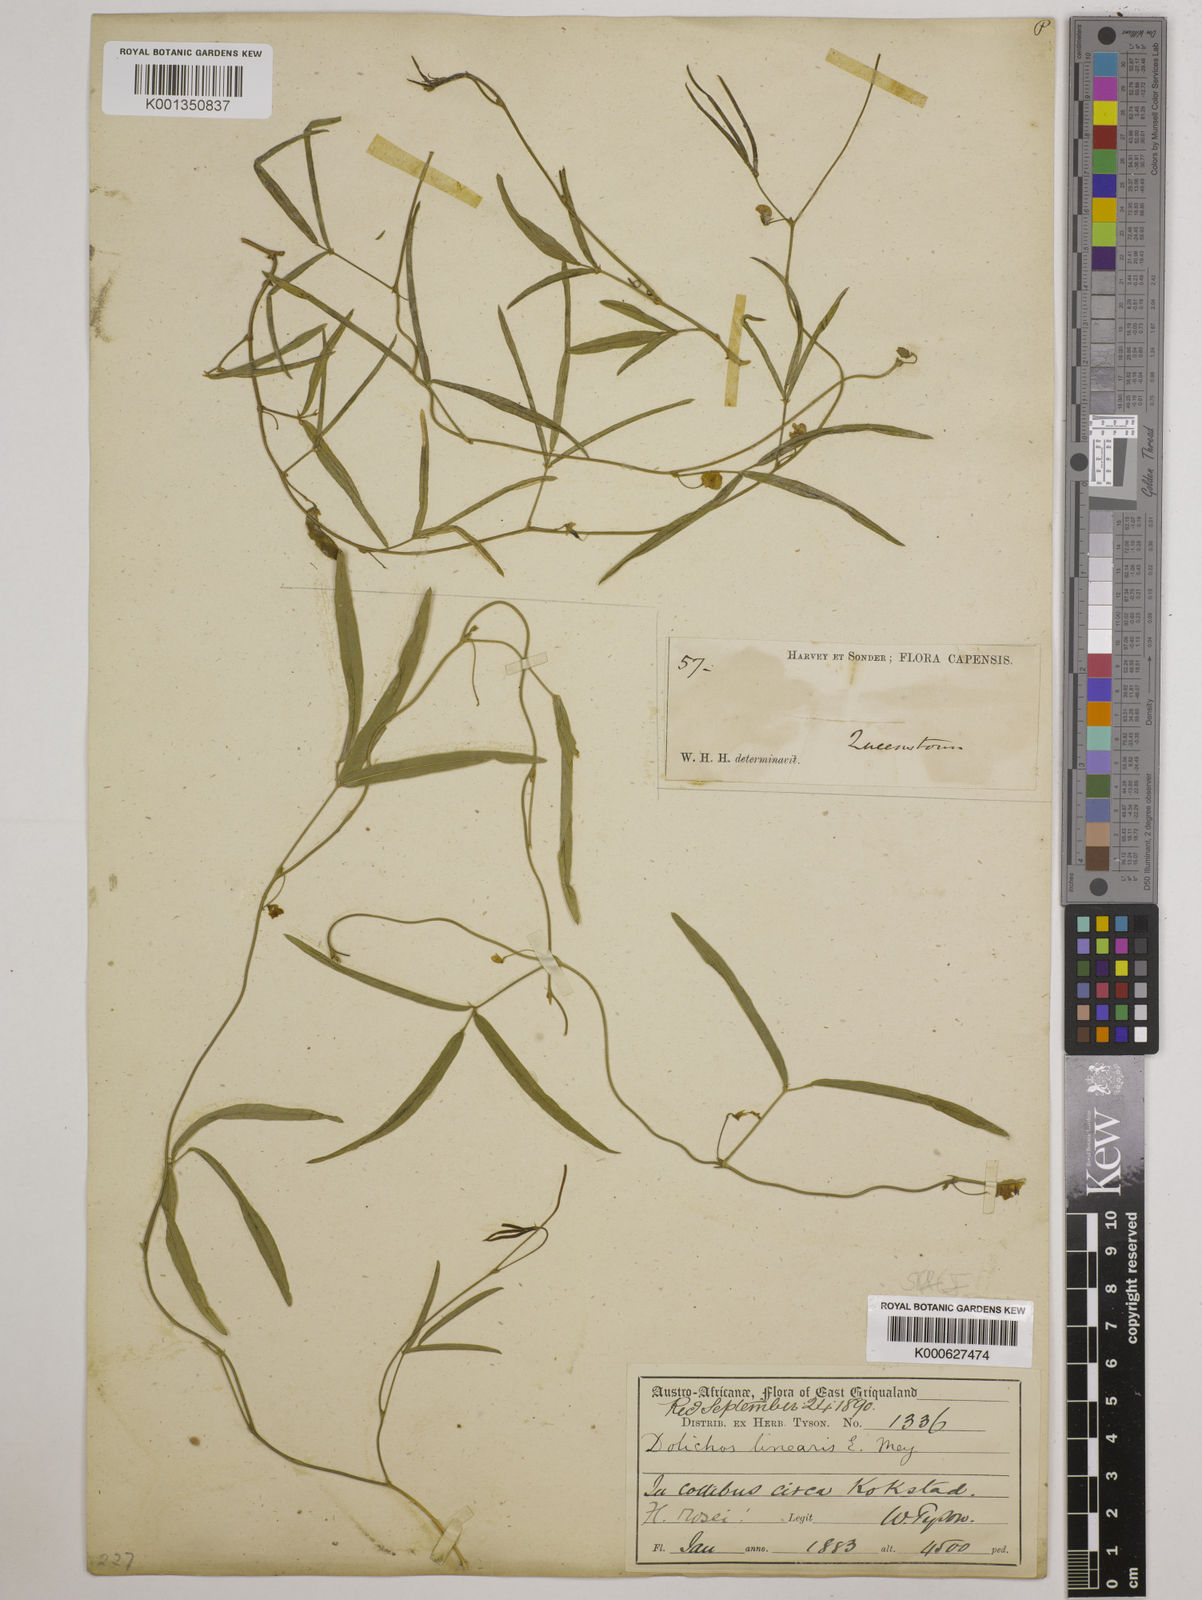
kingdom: Plantae
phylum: Tracheophyta
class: Magnoliopsida
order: Fabales
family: Fabaceae
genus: Dolichos
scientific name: Dolichos linearis
